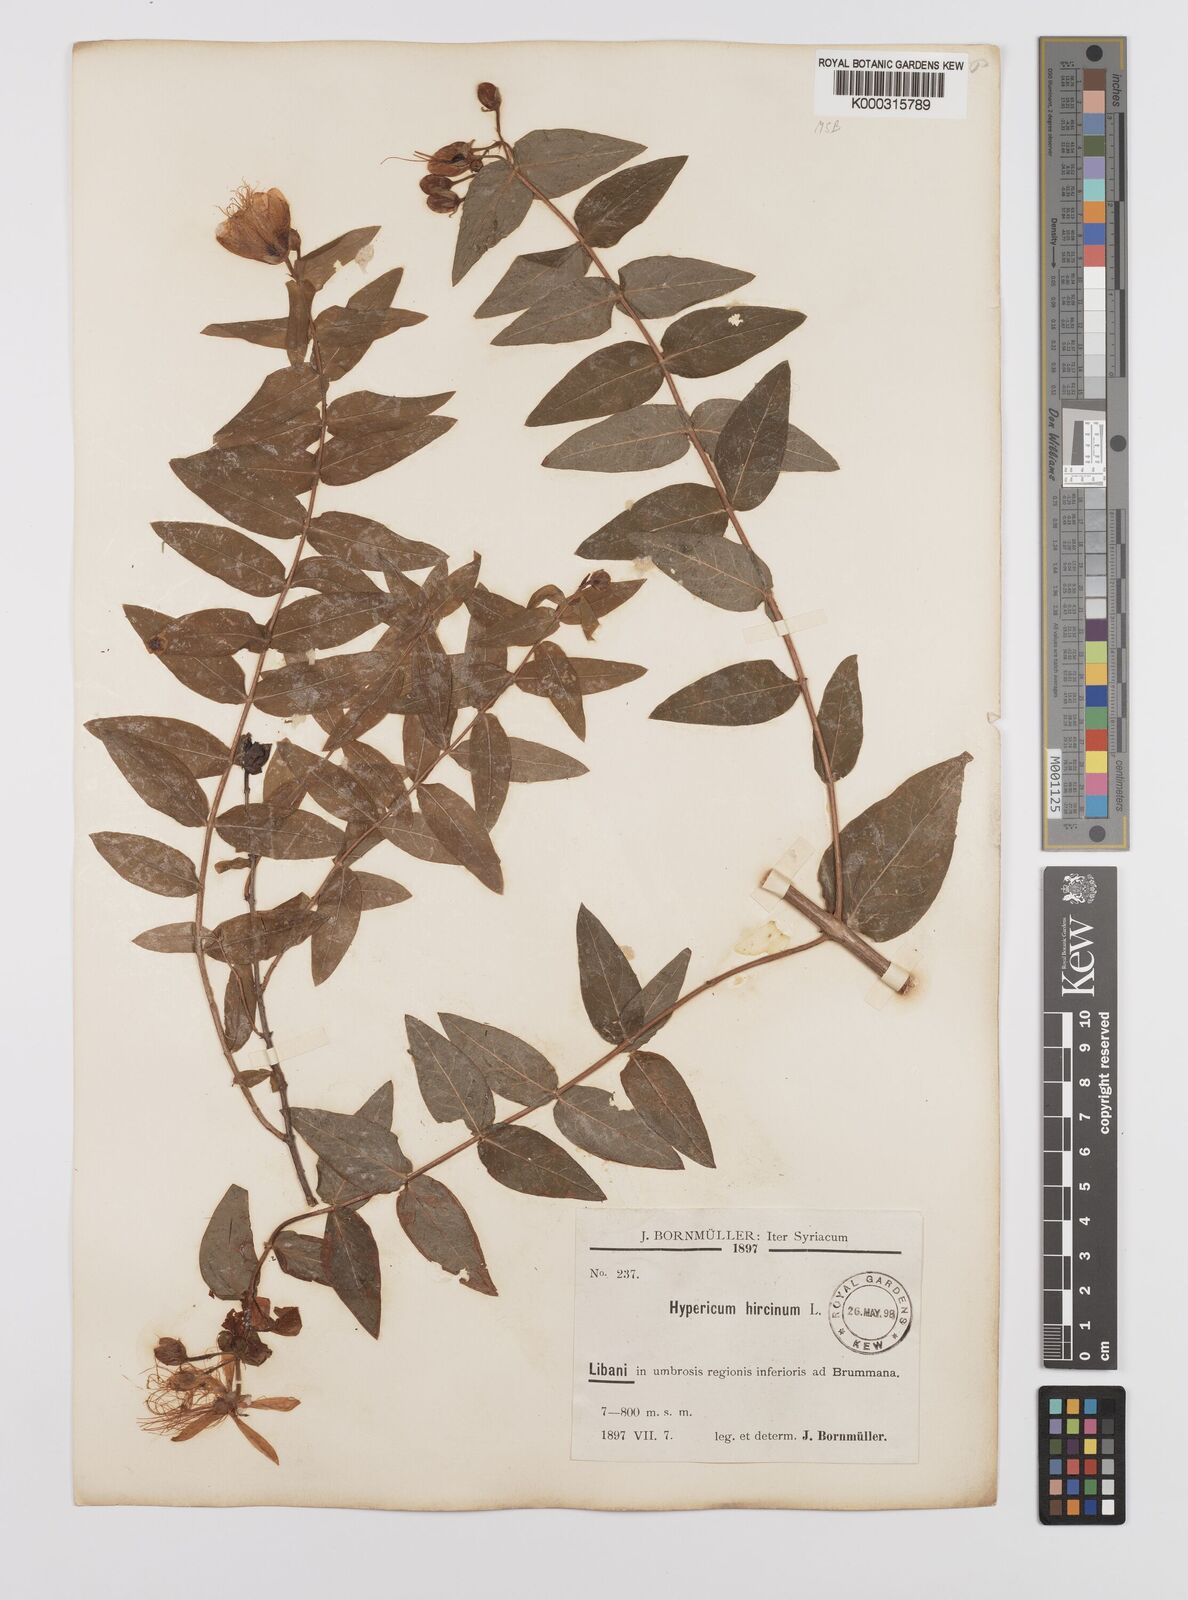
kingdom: Plantae
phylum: Tracheophyta
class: Magnoliopsida
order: Malpighiales
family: Hypericaceae
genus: Hypericum
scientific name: Hypericum hircinum
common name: Stinking tutsan
